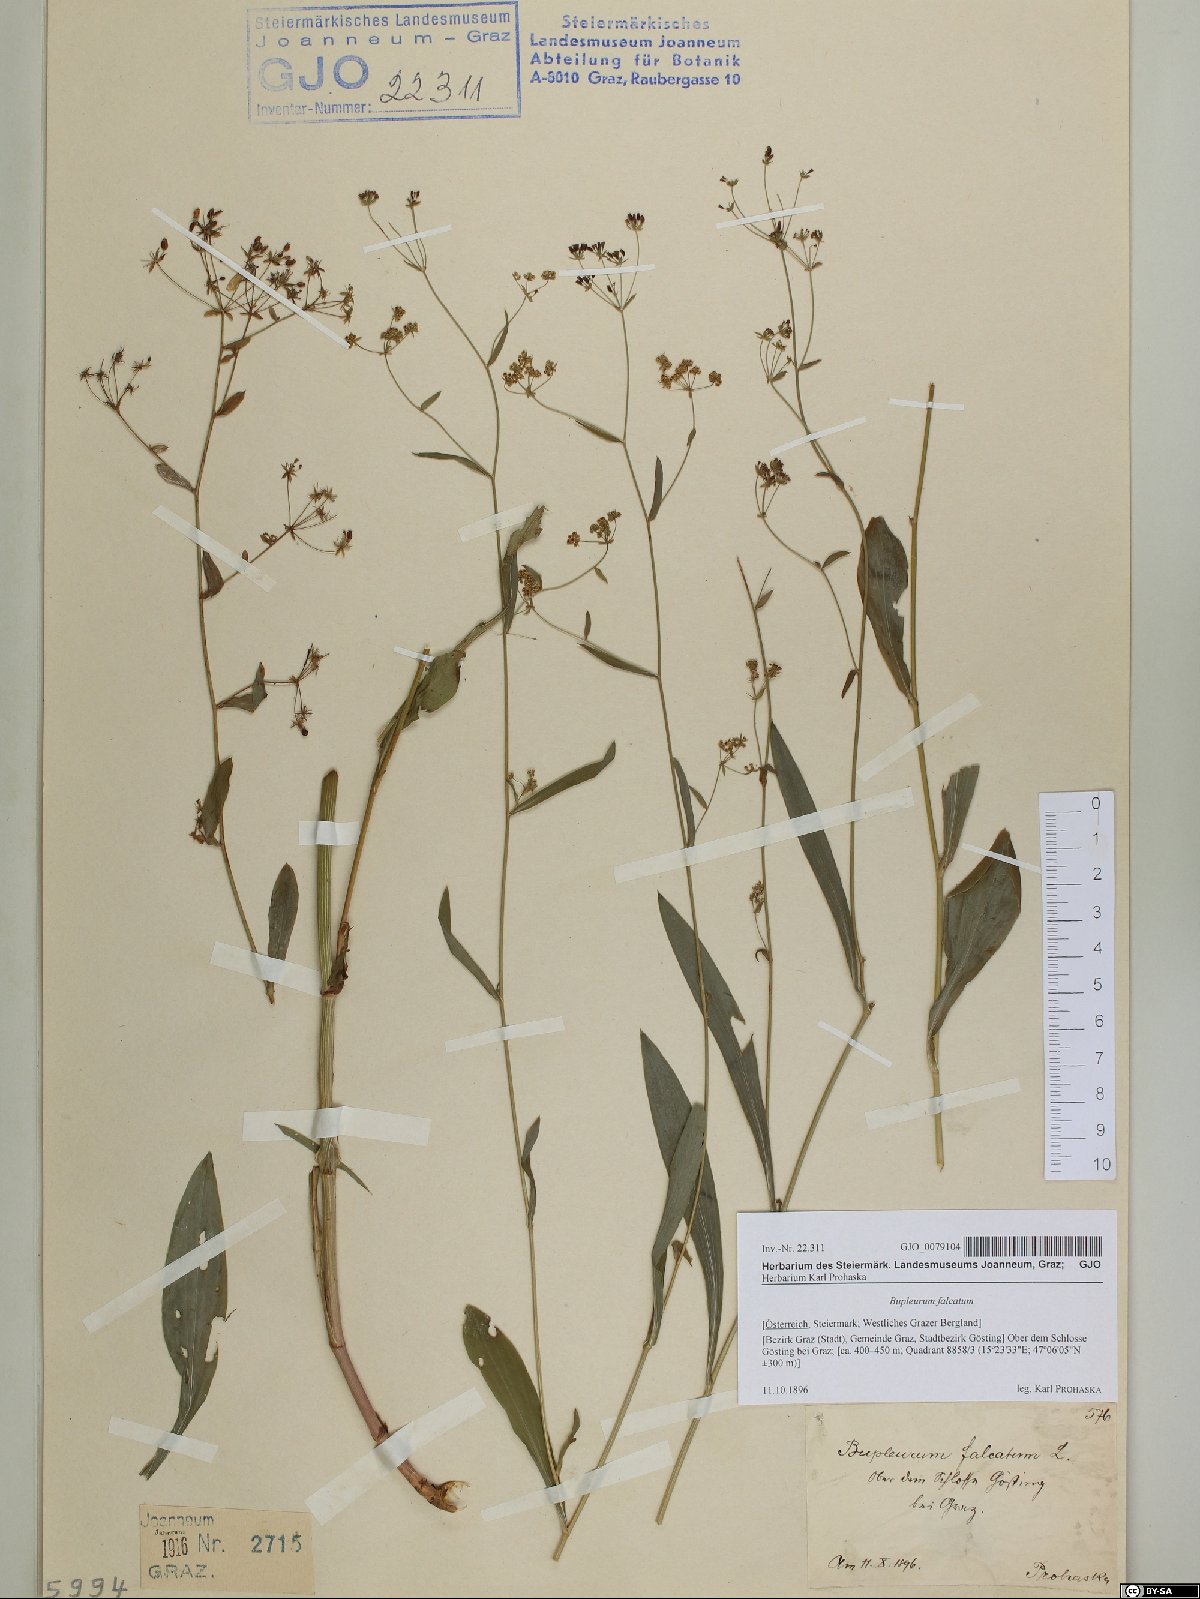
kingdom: Plantae
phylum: Tracheophyta
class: Magnoliopsida
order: Apiales
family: Apiaceae
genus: Bupleurum
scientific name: Bupleurum falcatum
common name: Sickle-leaved hare's-ear
